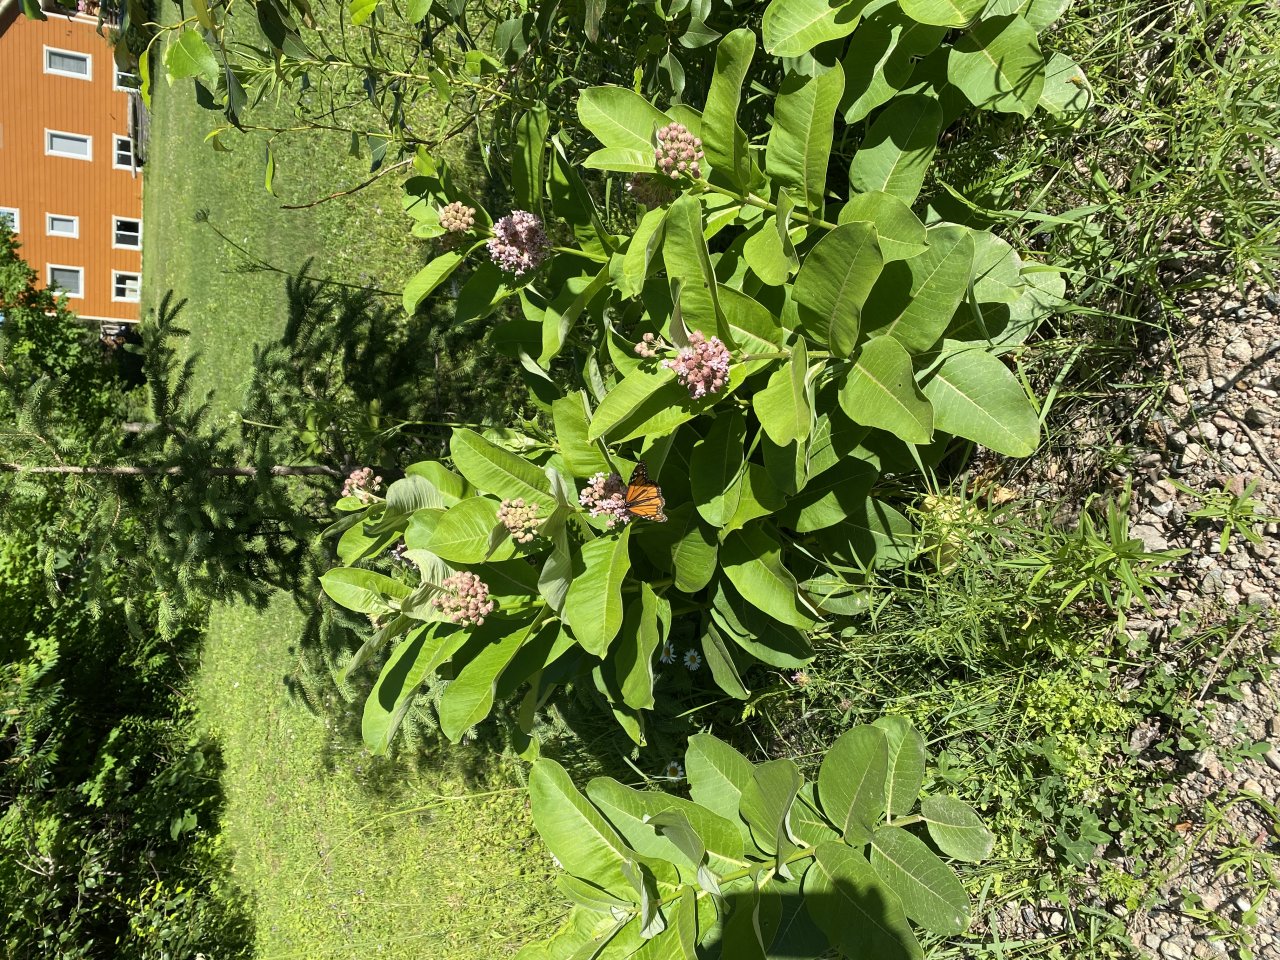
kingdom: Animalia
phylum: Arthropoda
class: Insecta
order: Lepidoptera
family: Nymphalidae
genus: Danaus
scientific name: Danaus plexippus
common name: Monarch
